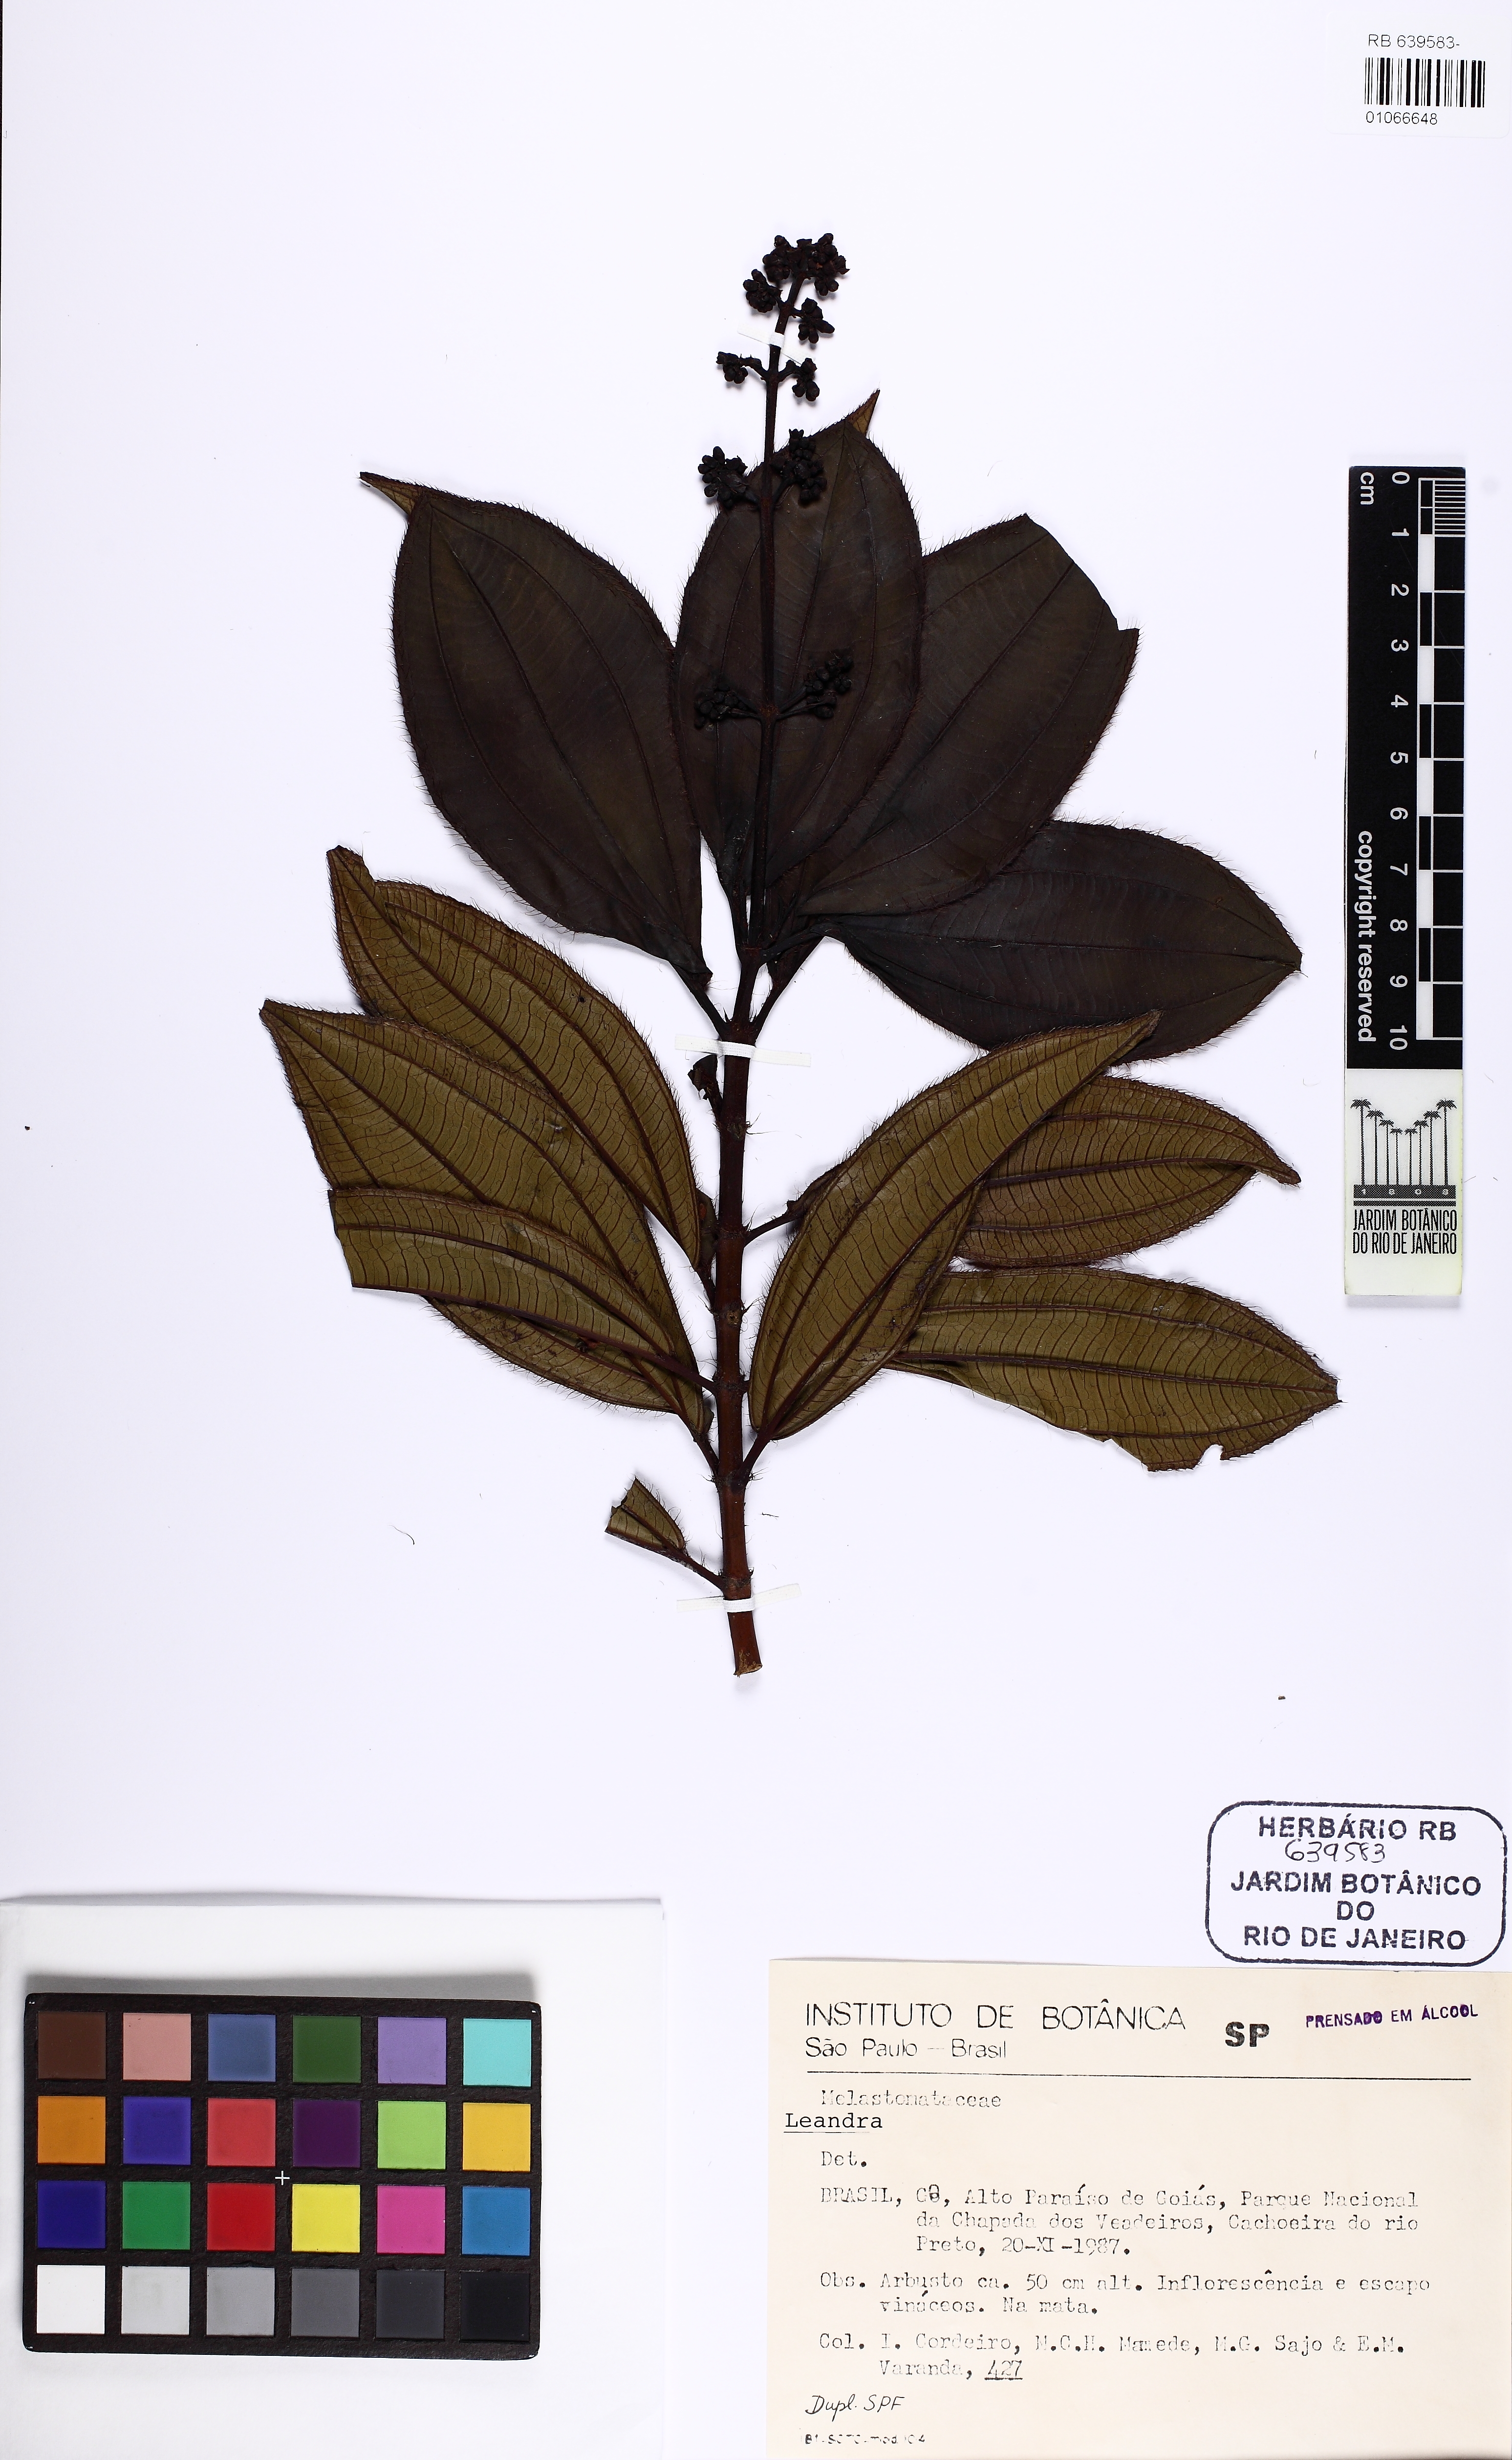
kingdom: Plantae
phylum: Tracheophyta
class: Magnoliopsida
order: Myrtales
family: Melastomataceae
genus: Miconia
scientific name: Miconia
